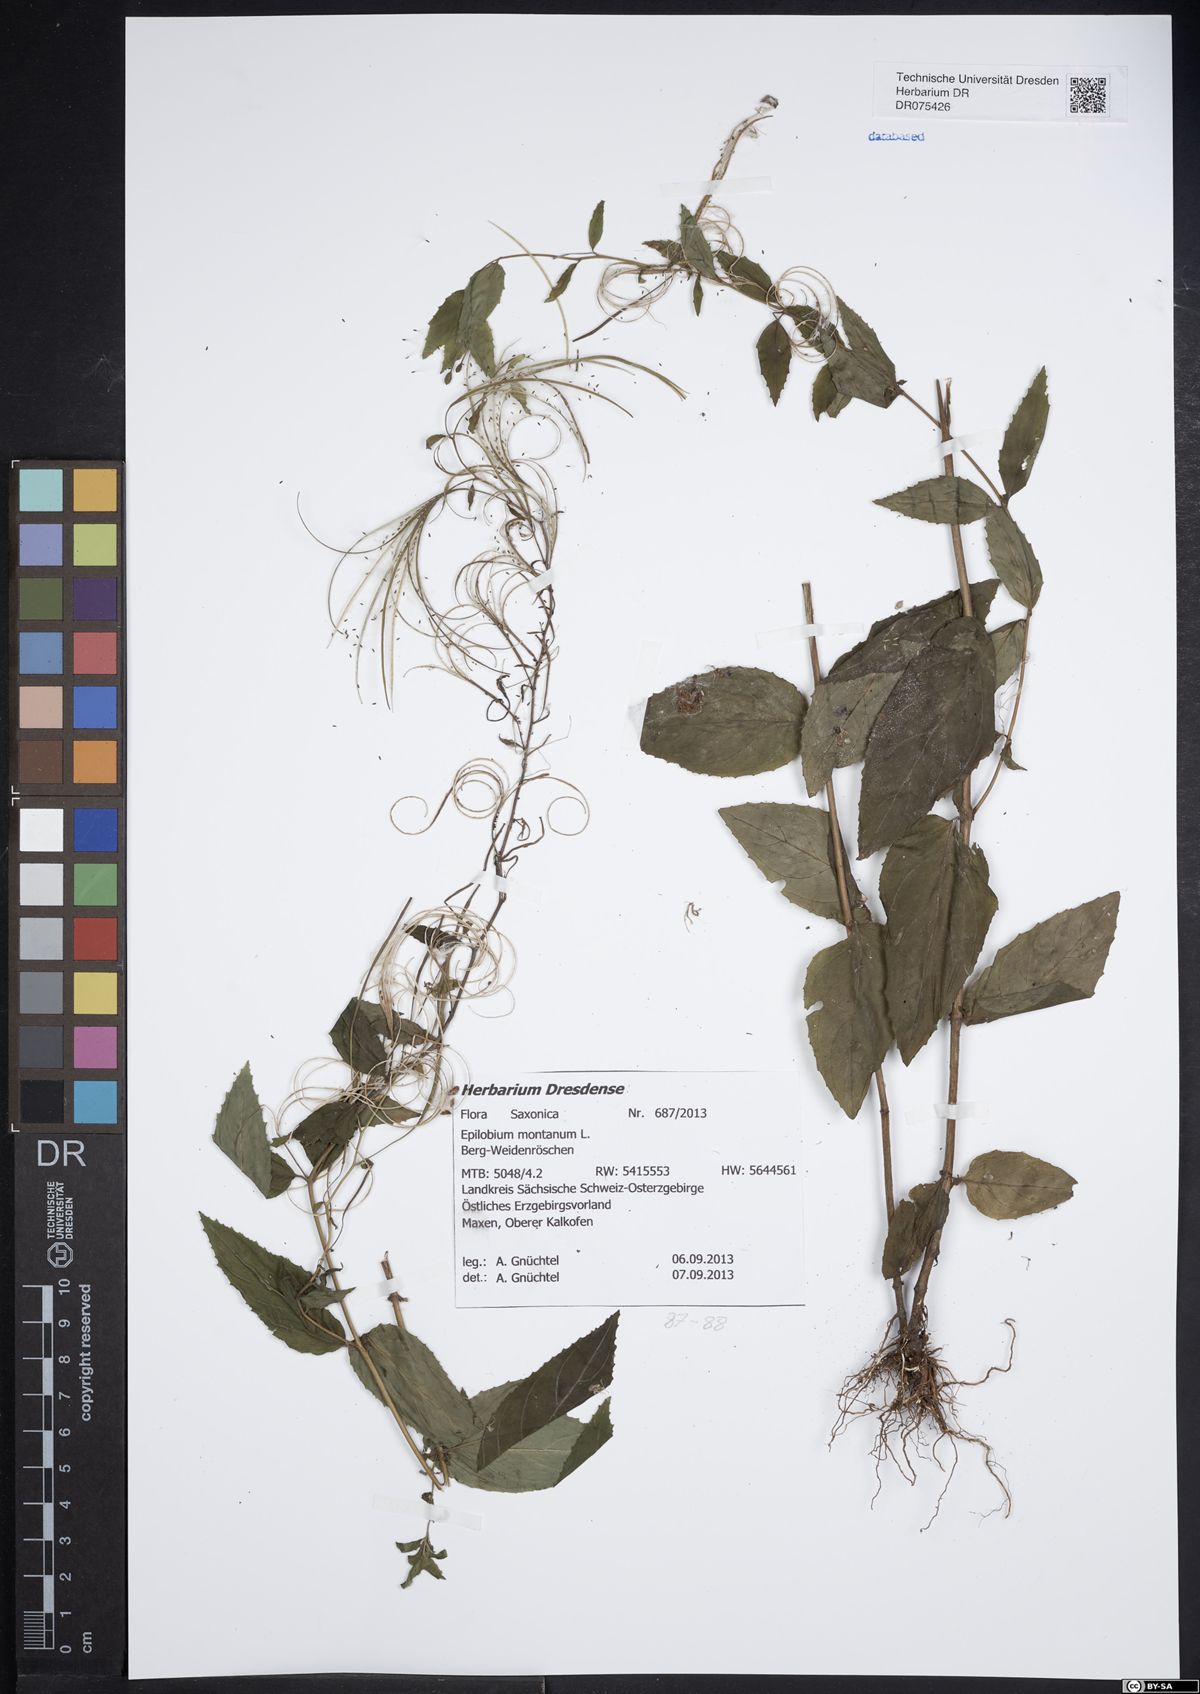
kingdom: Plantae
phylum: Tracheophyta
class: Magnoliopsida
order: Myrtales
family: Onagraceae
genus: Epilobium
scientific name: Epilobium montanum
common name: Broad-leaved willowherb
